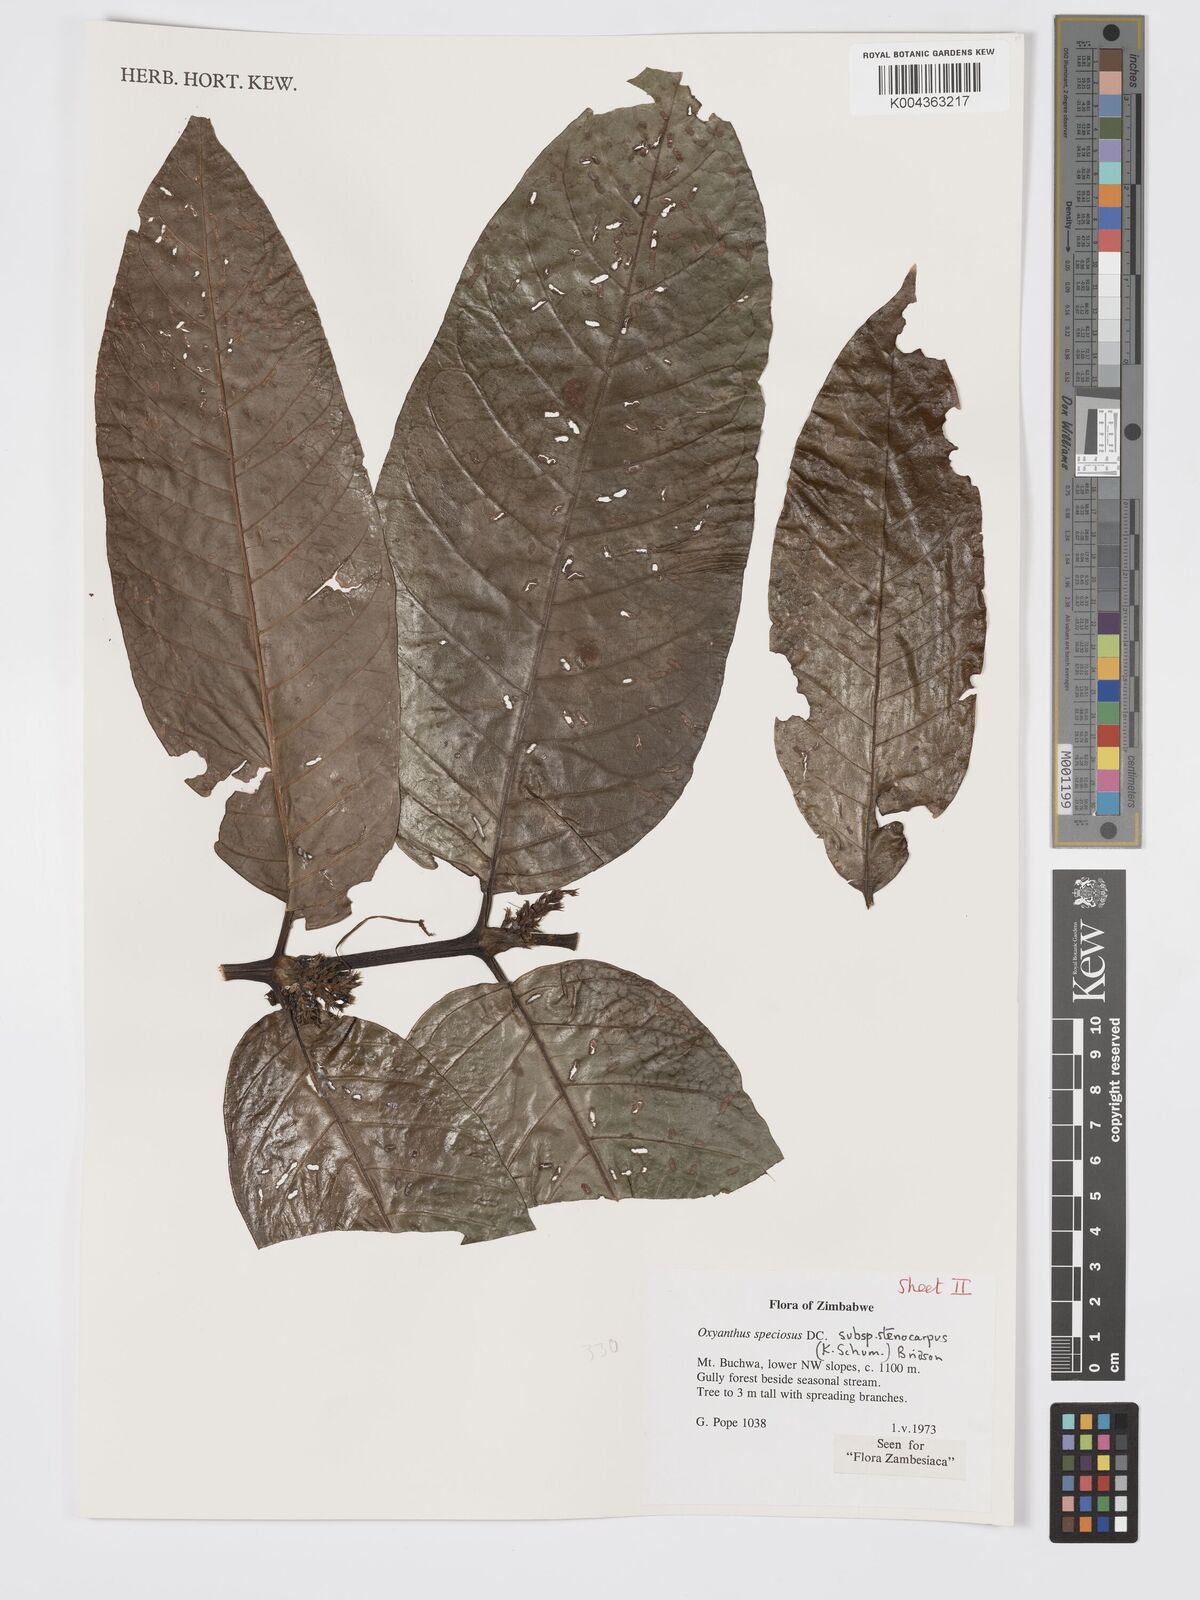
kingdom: Plantae
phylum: Tracheophyta
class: Magnoliopsida
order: Gentianales
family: Rubiaceae
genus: Oxyanthus
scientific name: Oxyanthus speciosus
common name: Whipstick loquat
